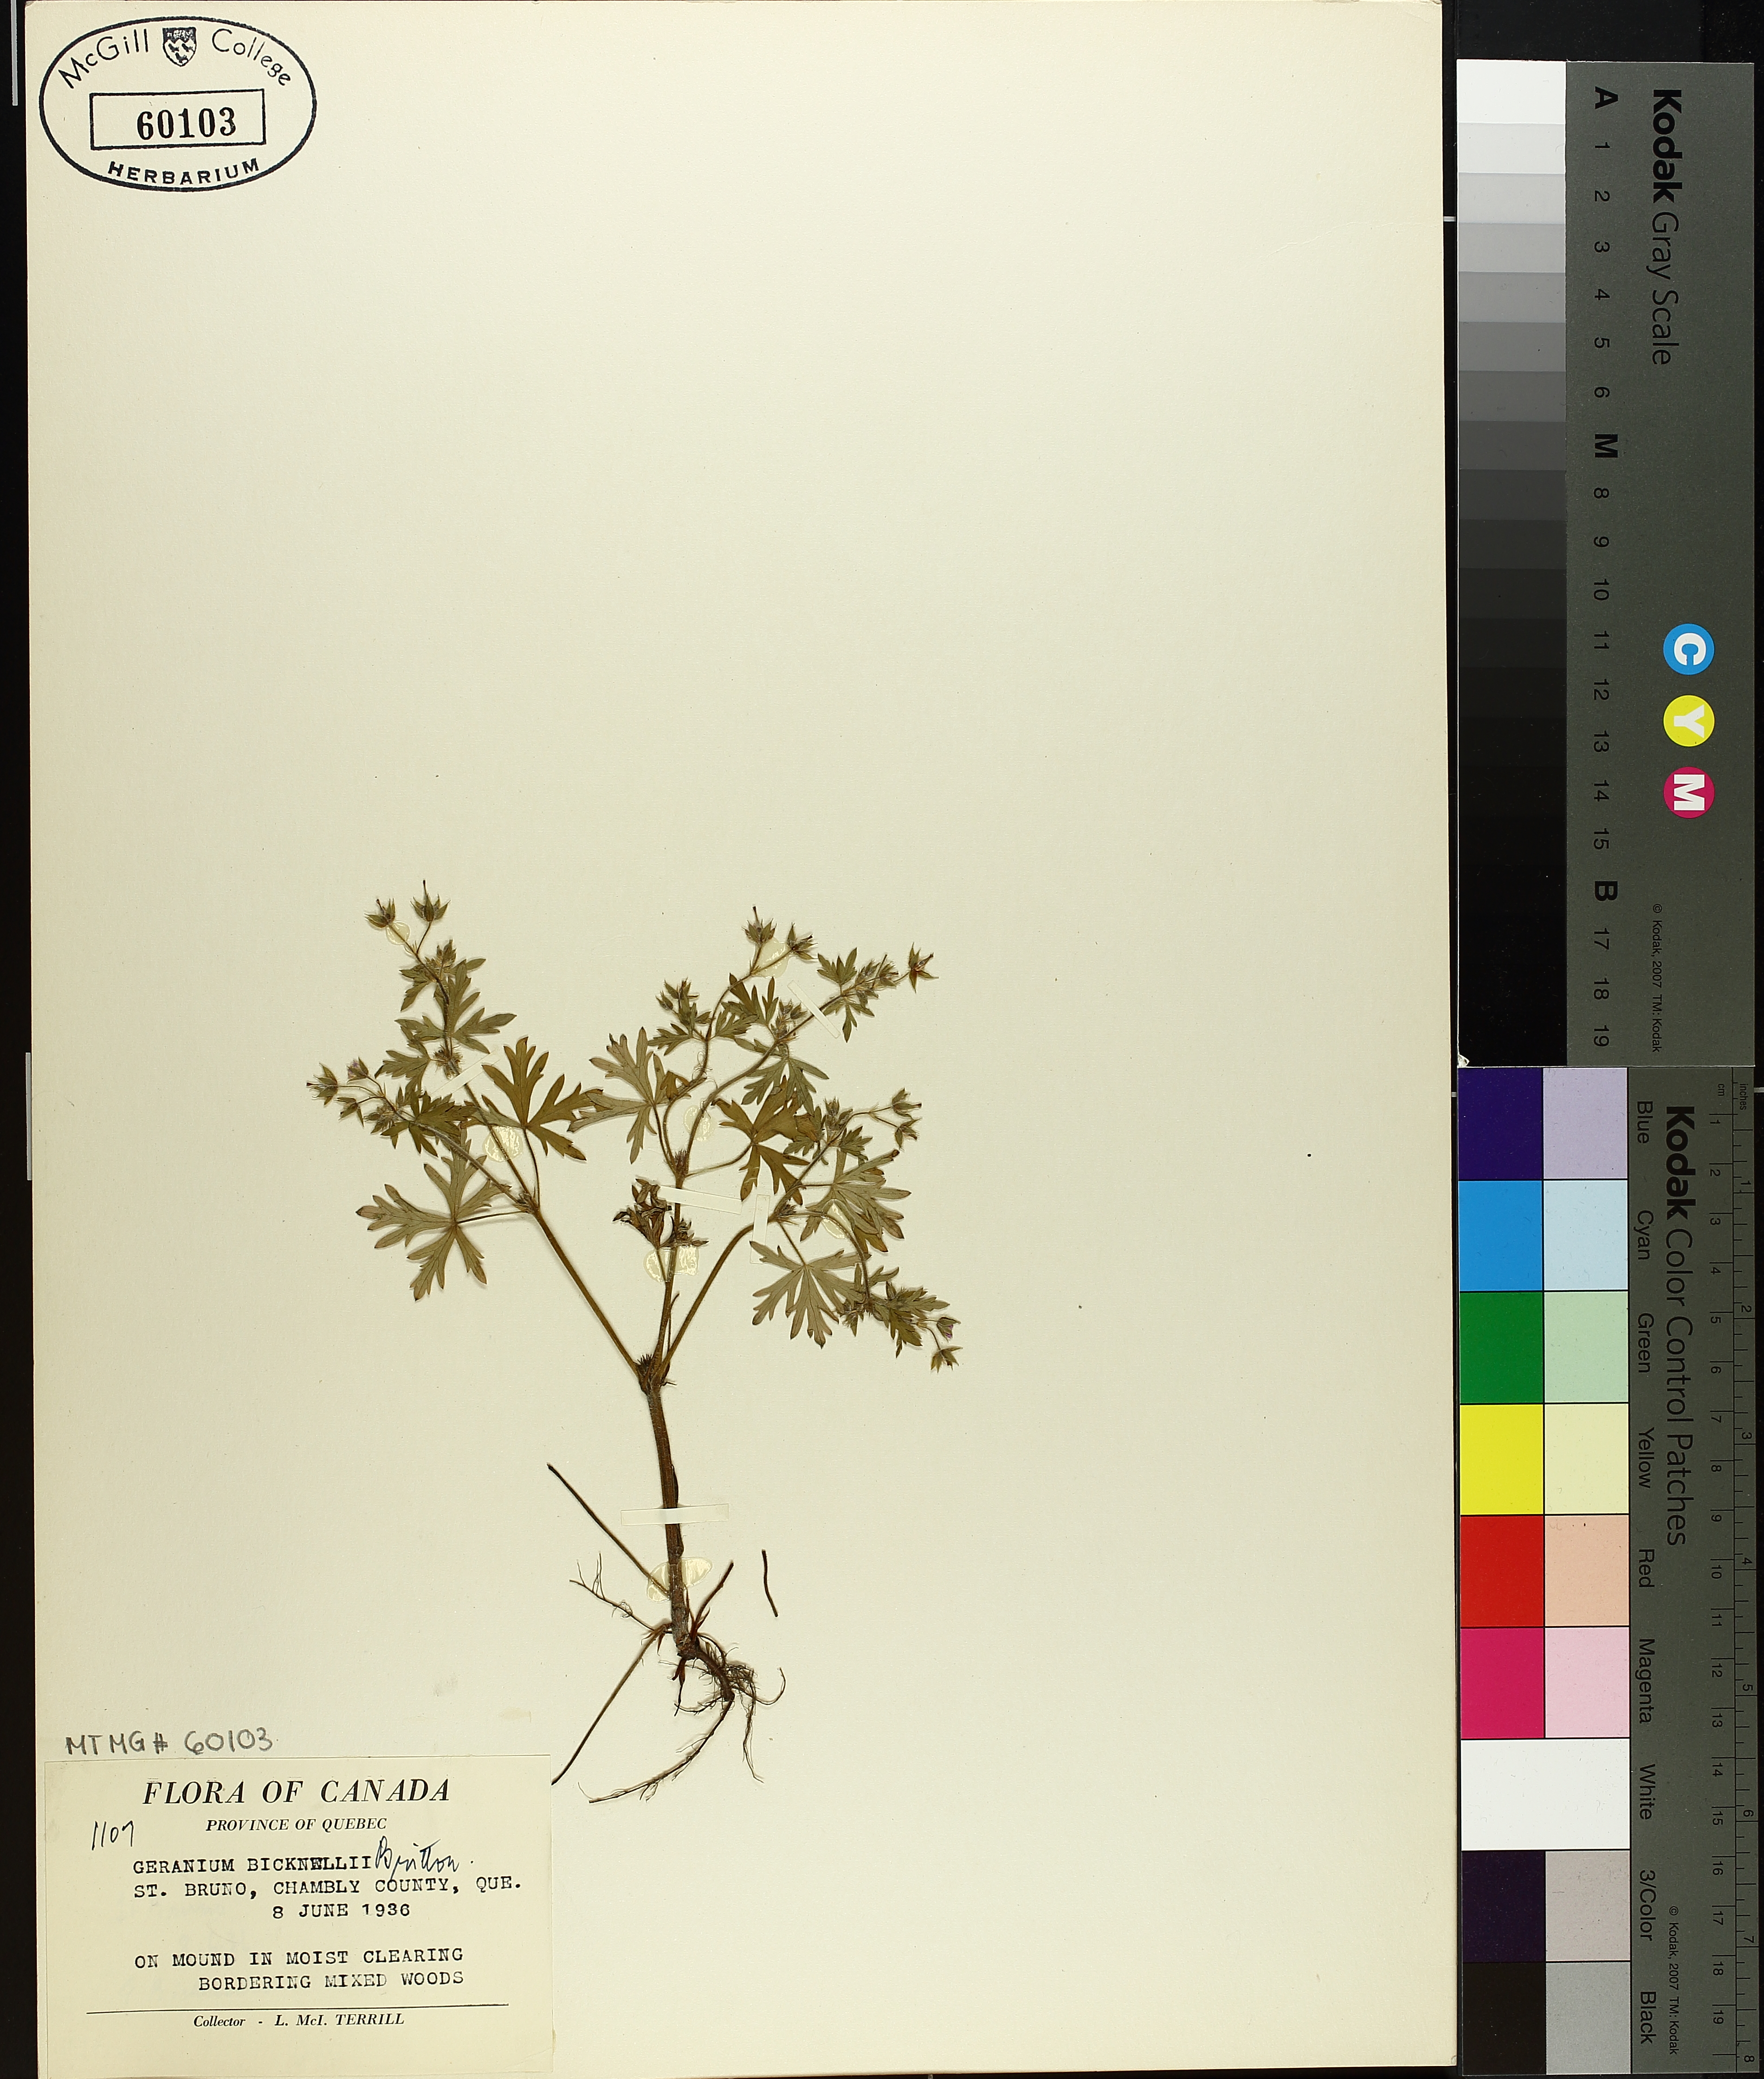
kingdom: Plantae
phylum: Tracheophyta
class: Magnoliopsida
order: Geraniales
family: Geraniaceae
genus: Geranium
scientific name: Geranium bicknellii
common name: Bicknell's cranesbill
